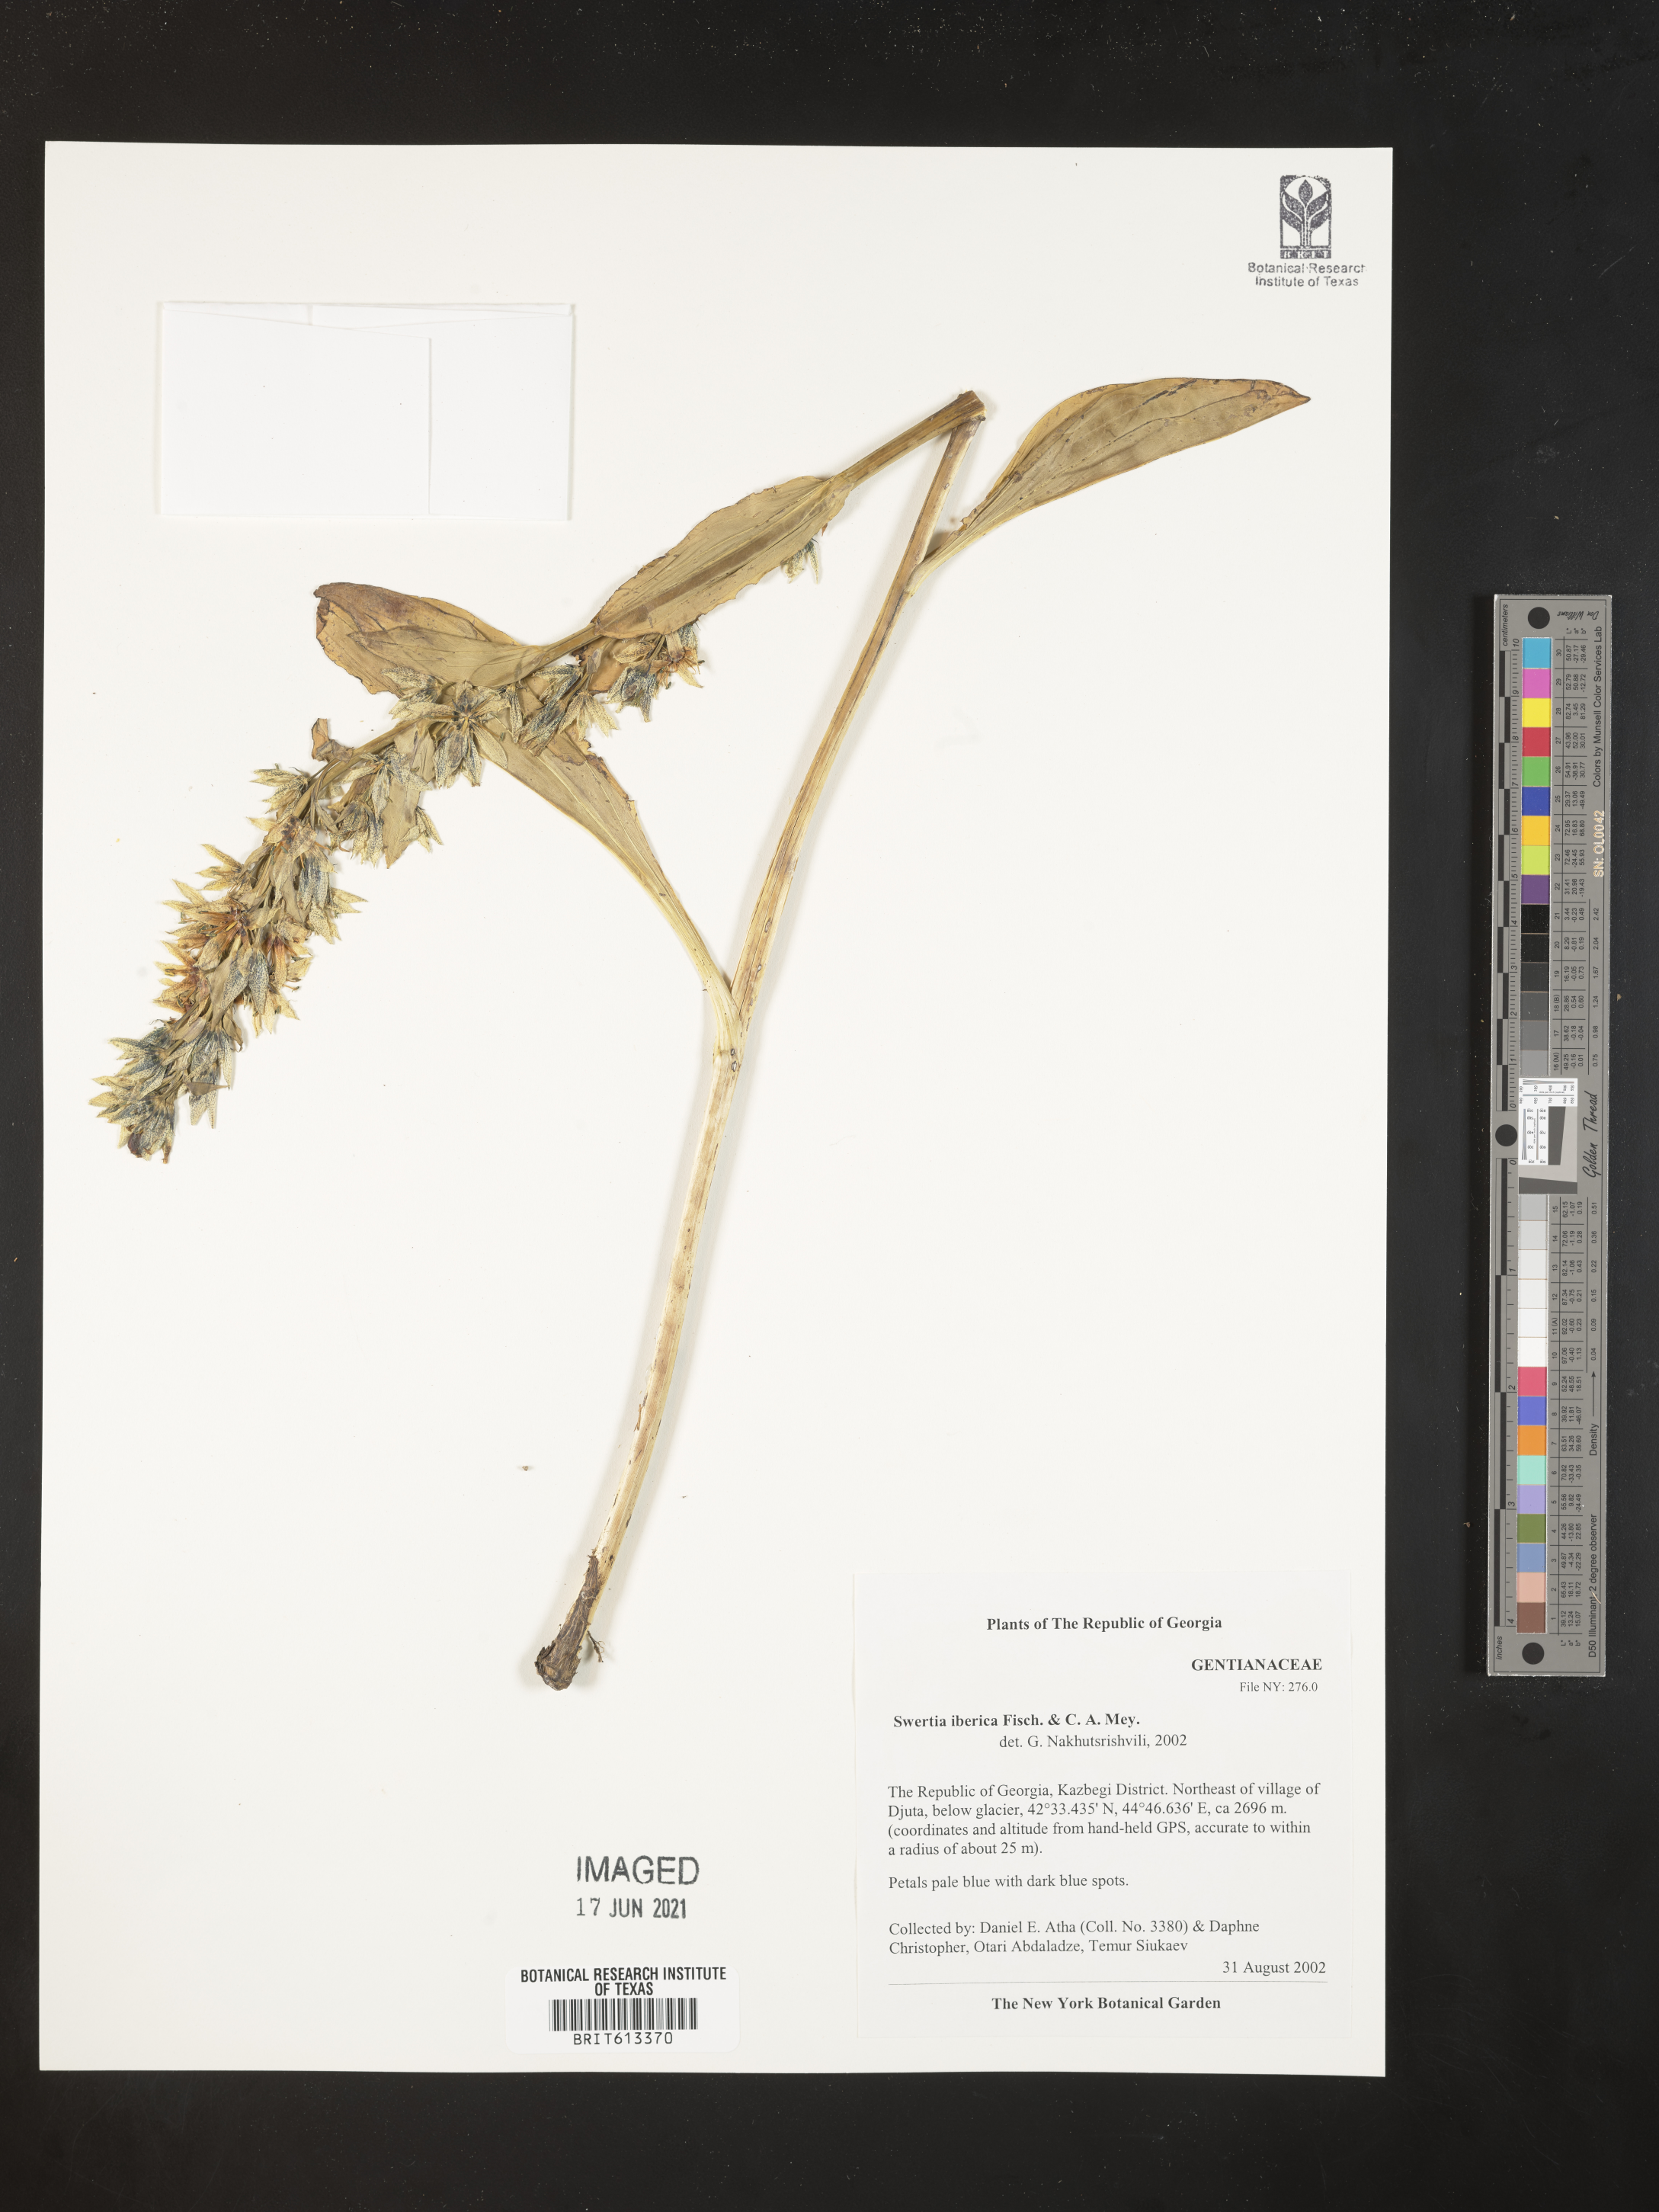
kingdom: Plantae
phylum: Tracheophyta
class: Magnoliopsida
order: Gentianales
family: Gentianaceae
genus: Swertia
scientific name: Swertia iberica
